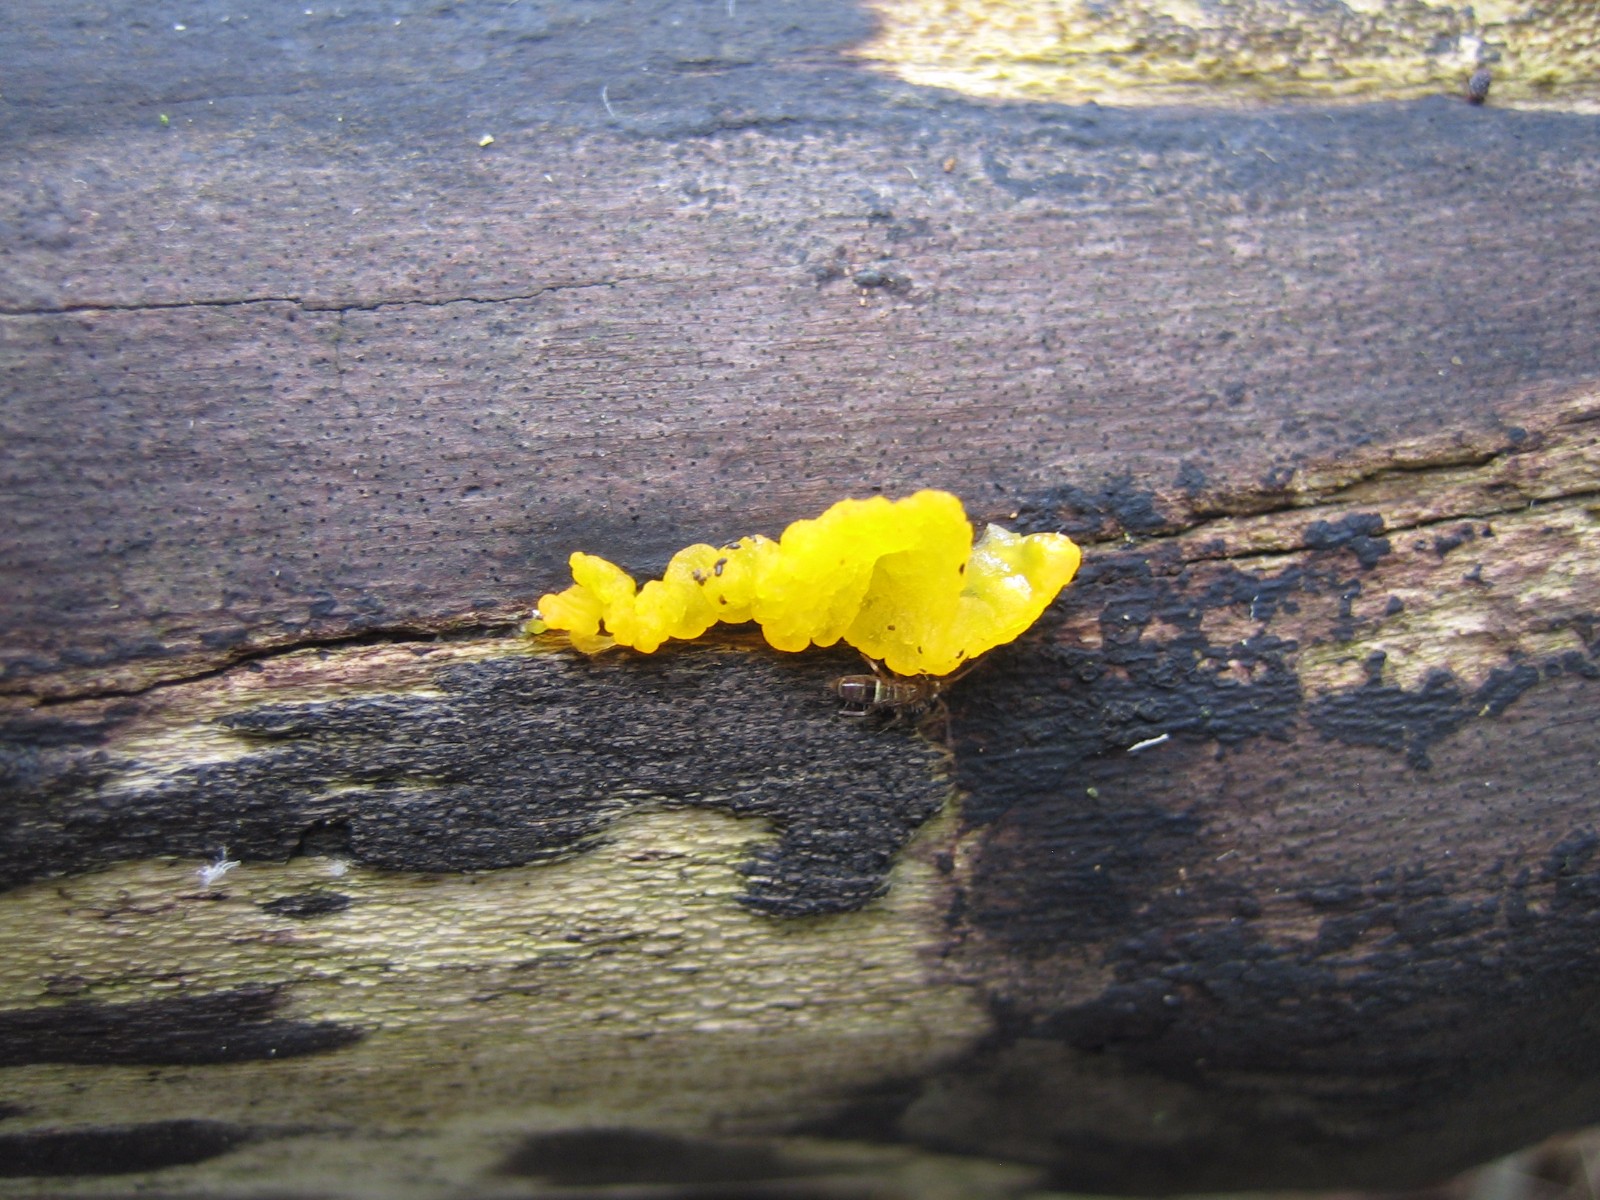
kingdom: Fungi
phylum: Basidiomycota
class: Tremellomycetes
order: Tremellales
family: Tremellaceae
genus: Tremella
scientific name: Tremella mesenterica
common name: gul bævresvamp
